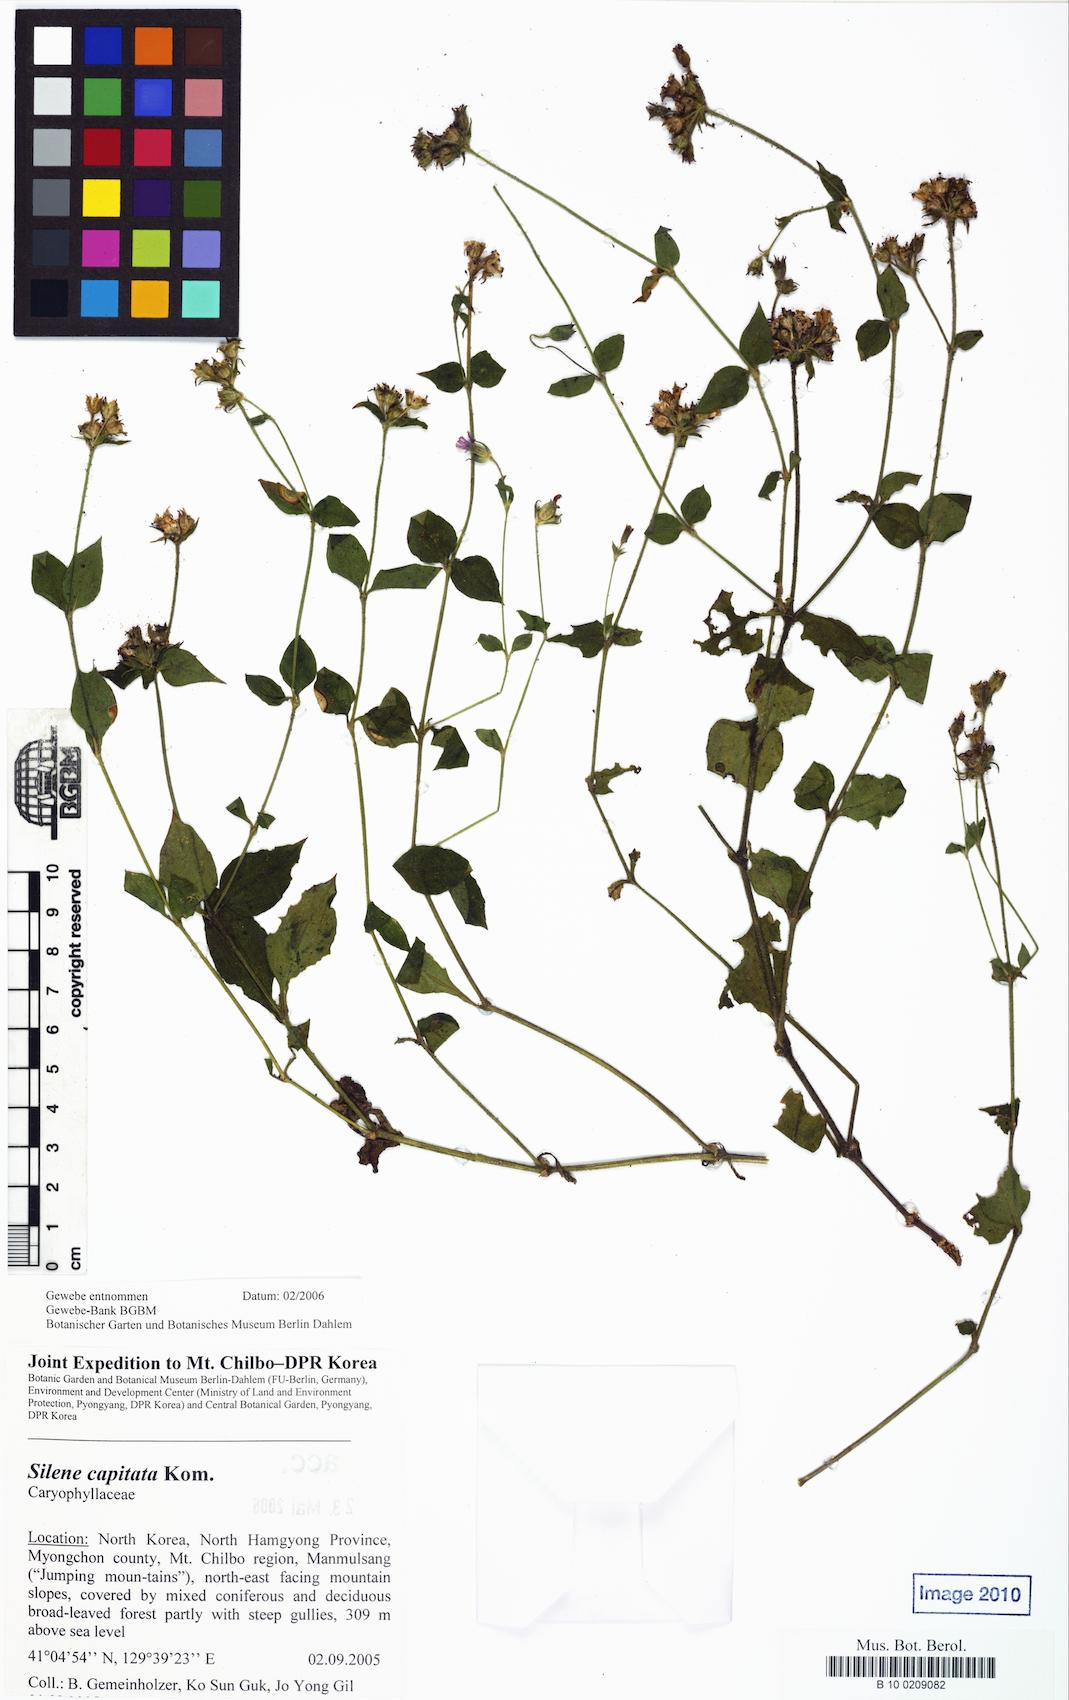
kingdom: Plantae
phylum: Tracheophyta
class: Magnoliopsida
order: Caryophyllales
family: Caryophyllaceae
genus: Silene
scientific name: Silene capitata
